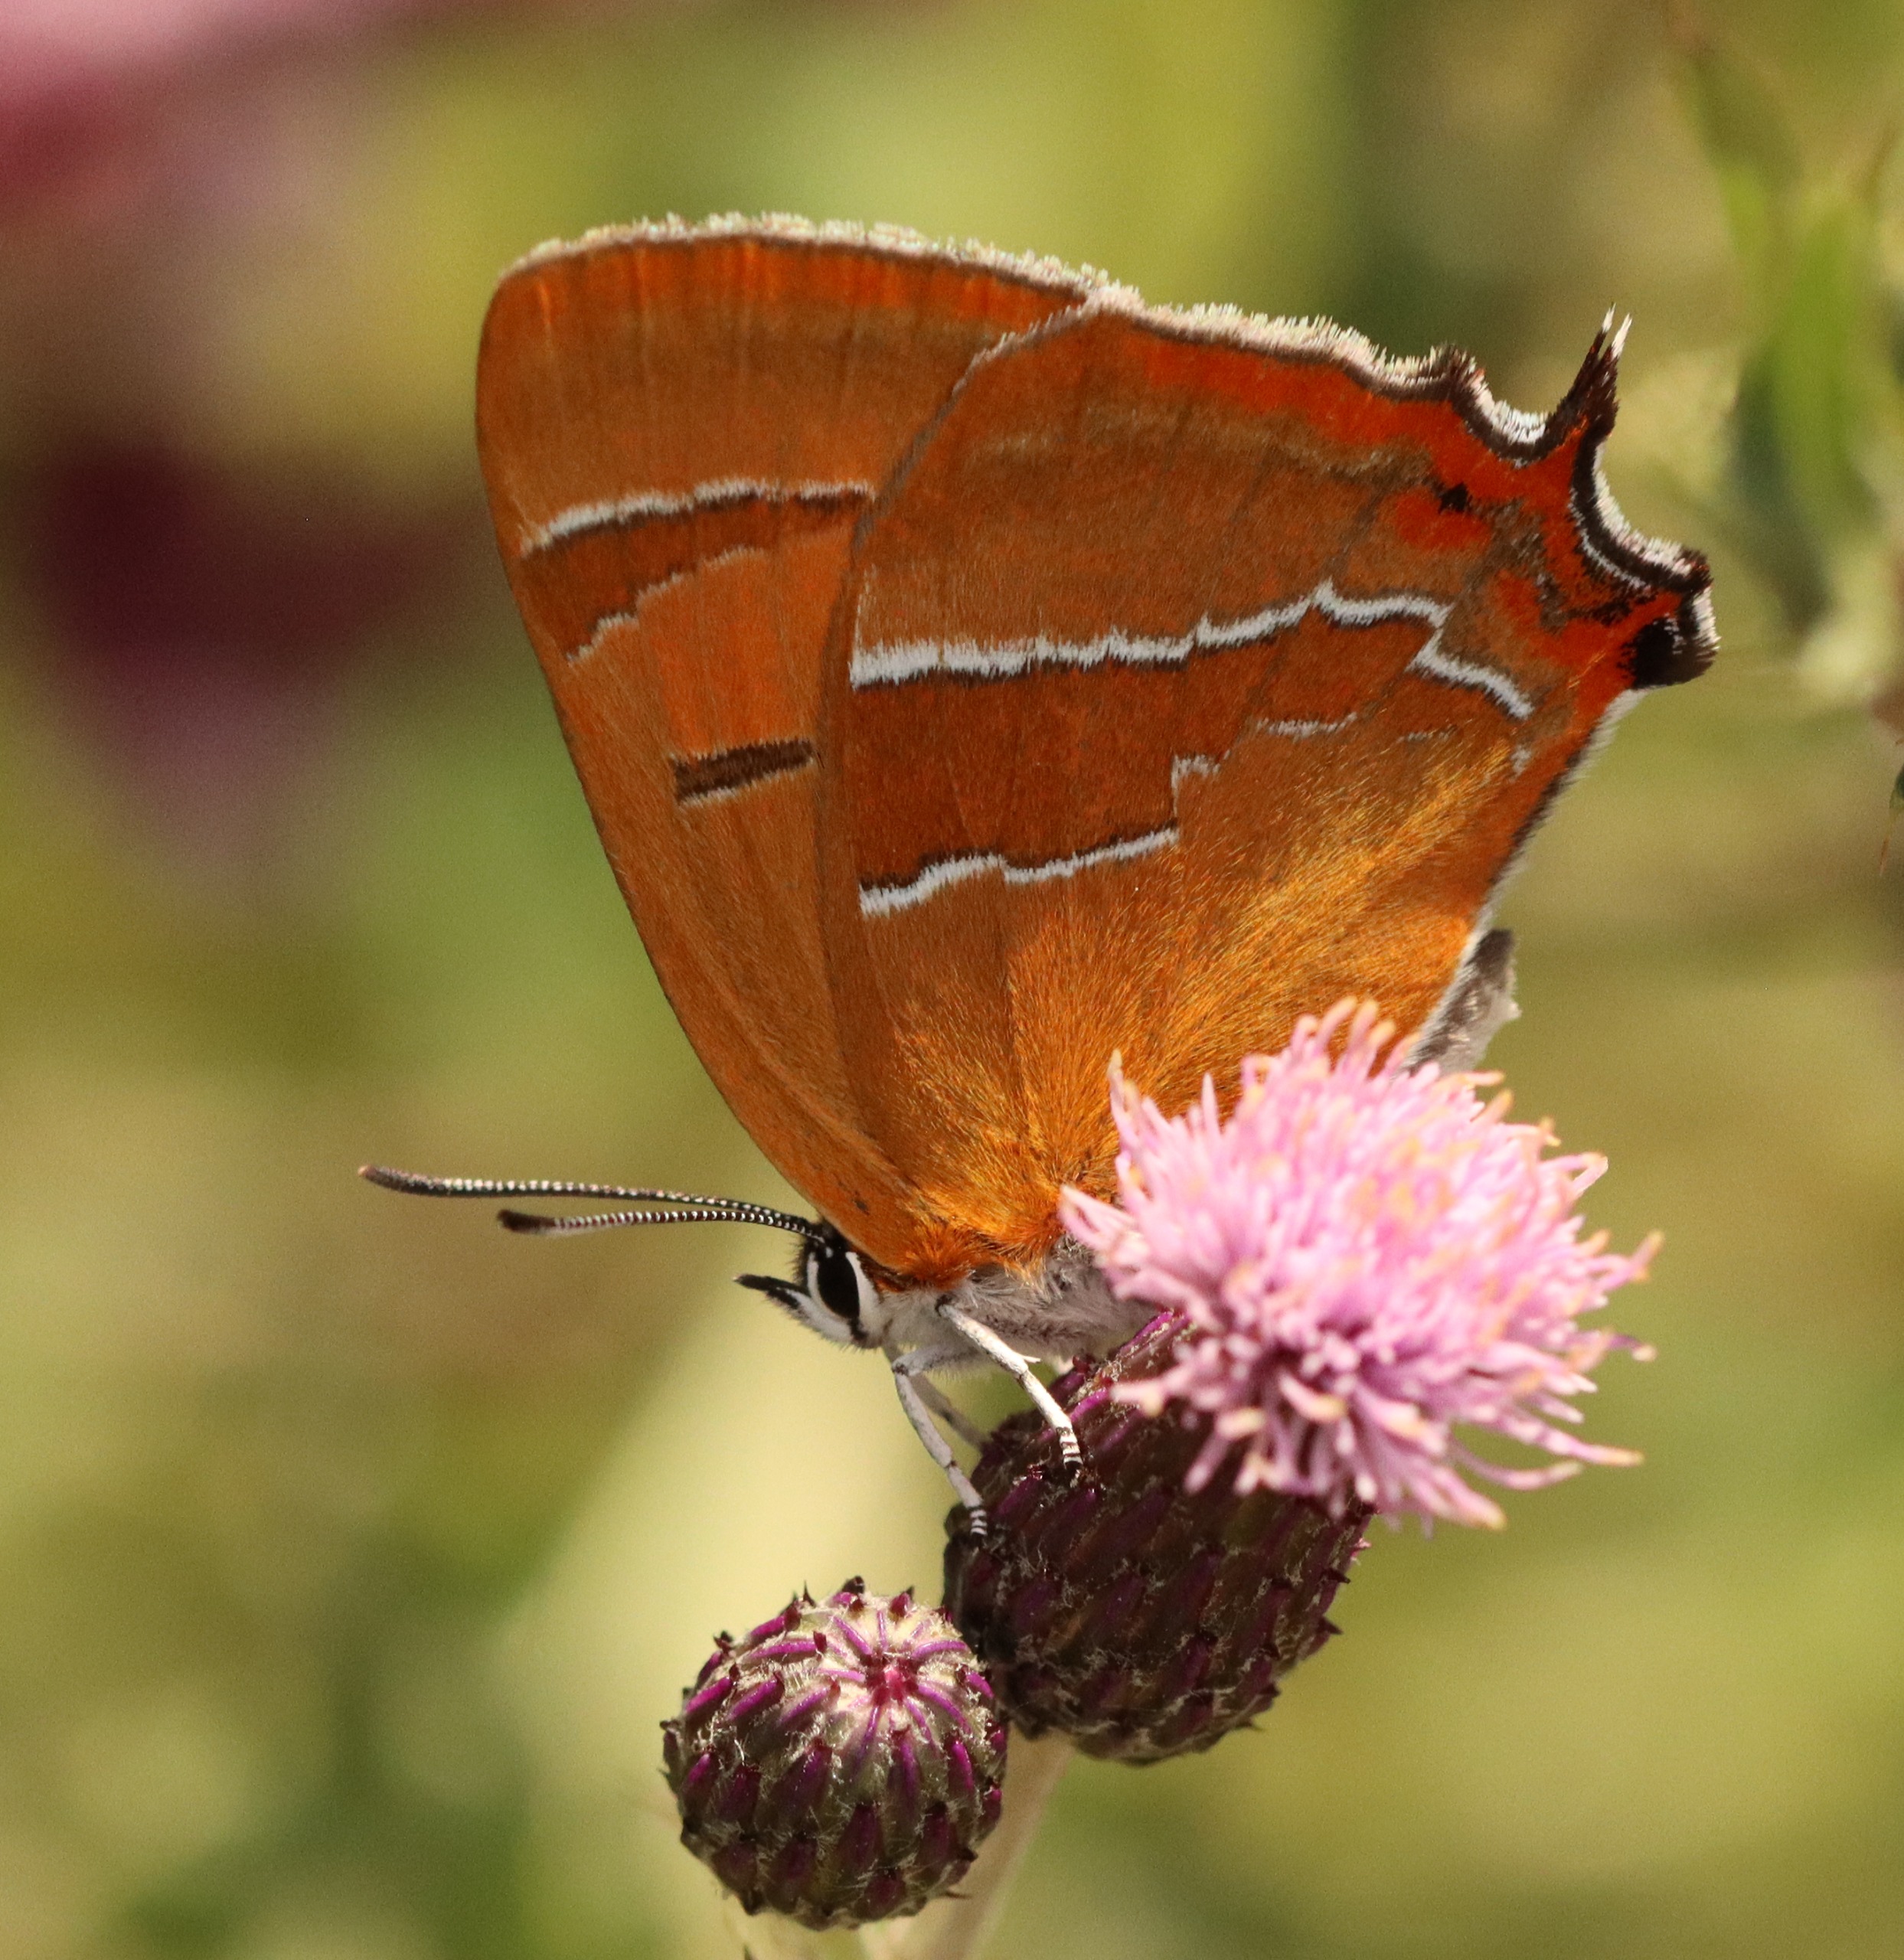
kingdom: Animalia
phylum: Arthropoda
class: Insecta
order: Lepidoptera
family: Lycaenidae
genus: Thecla
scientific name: Thecla betulae
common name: Guldhale
